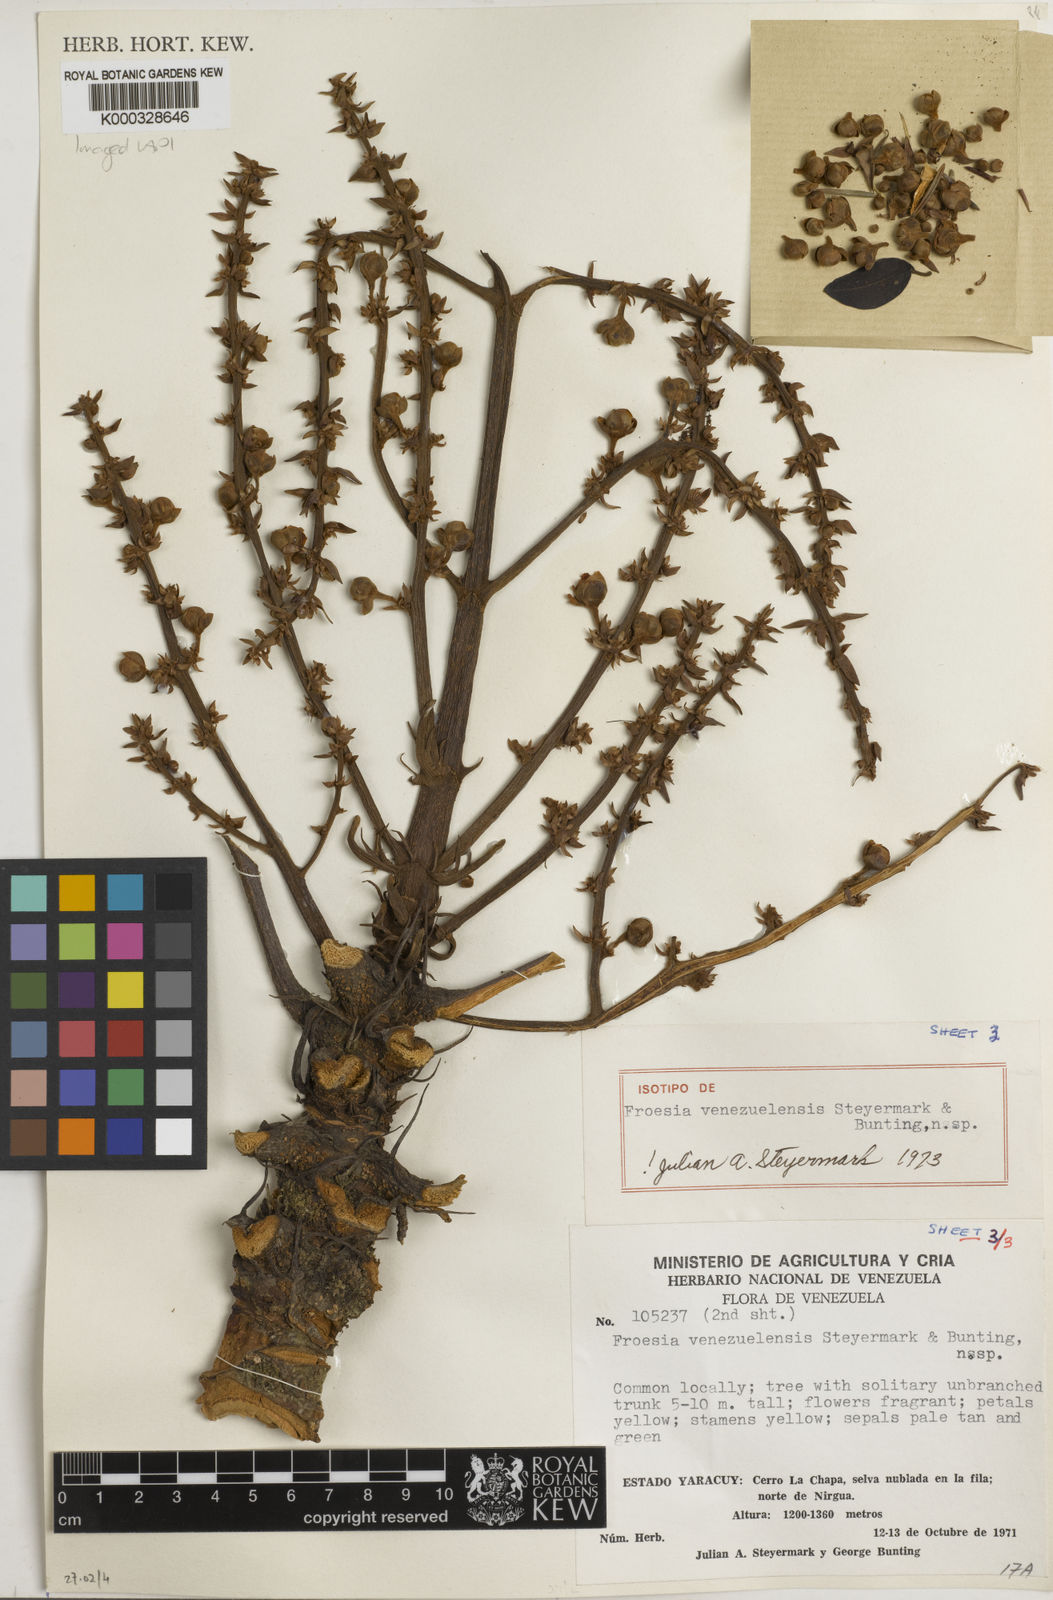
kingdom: Plantae
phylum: Tracheophyta
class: Magnoliopsida
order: Malpighiales
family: Quiinaceae
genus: Froesia
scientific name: Froesia venezuelensis
